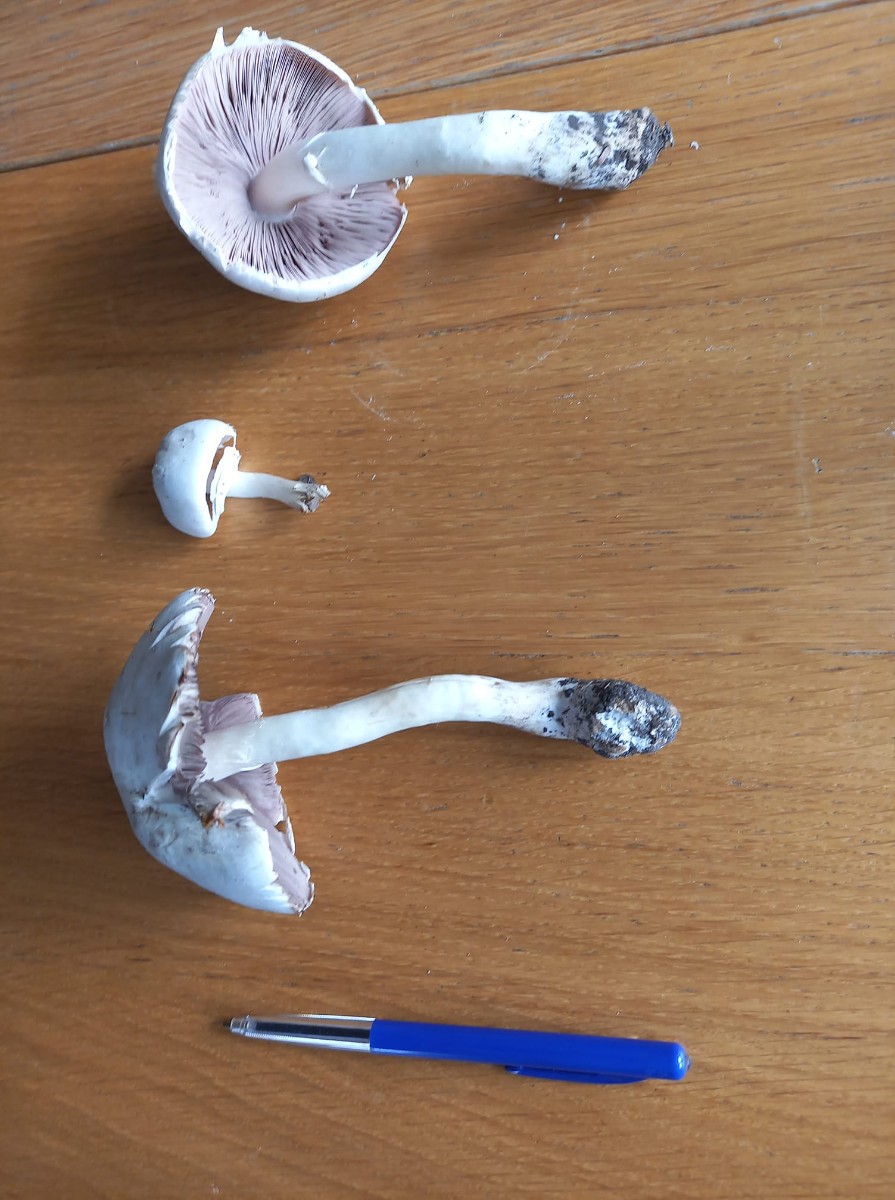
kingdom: Fungi
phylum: Basidiomycota
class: Agaricomycetes
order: Agaricales
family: Agaricaceae
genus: Agaricus
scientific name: Agaricus
